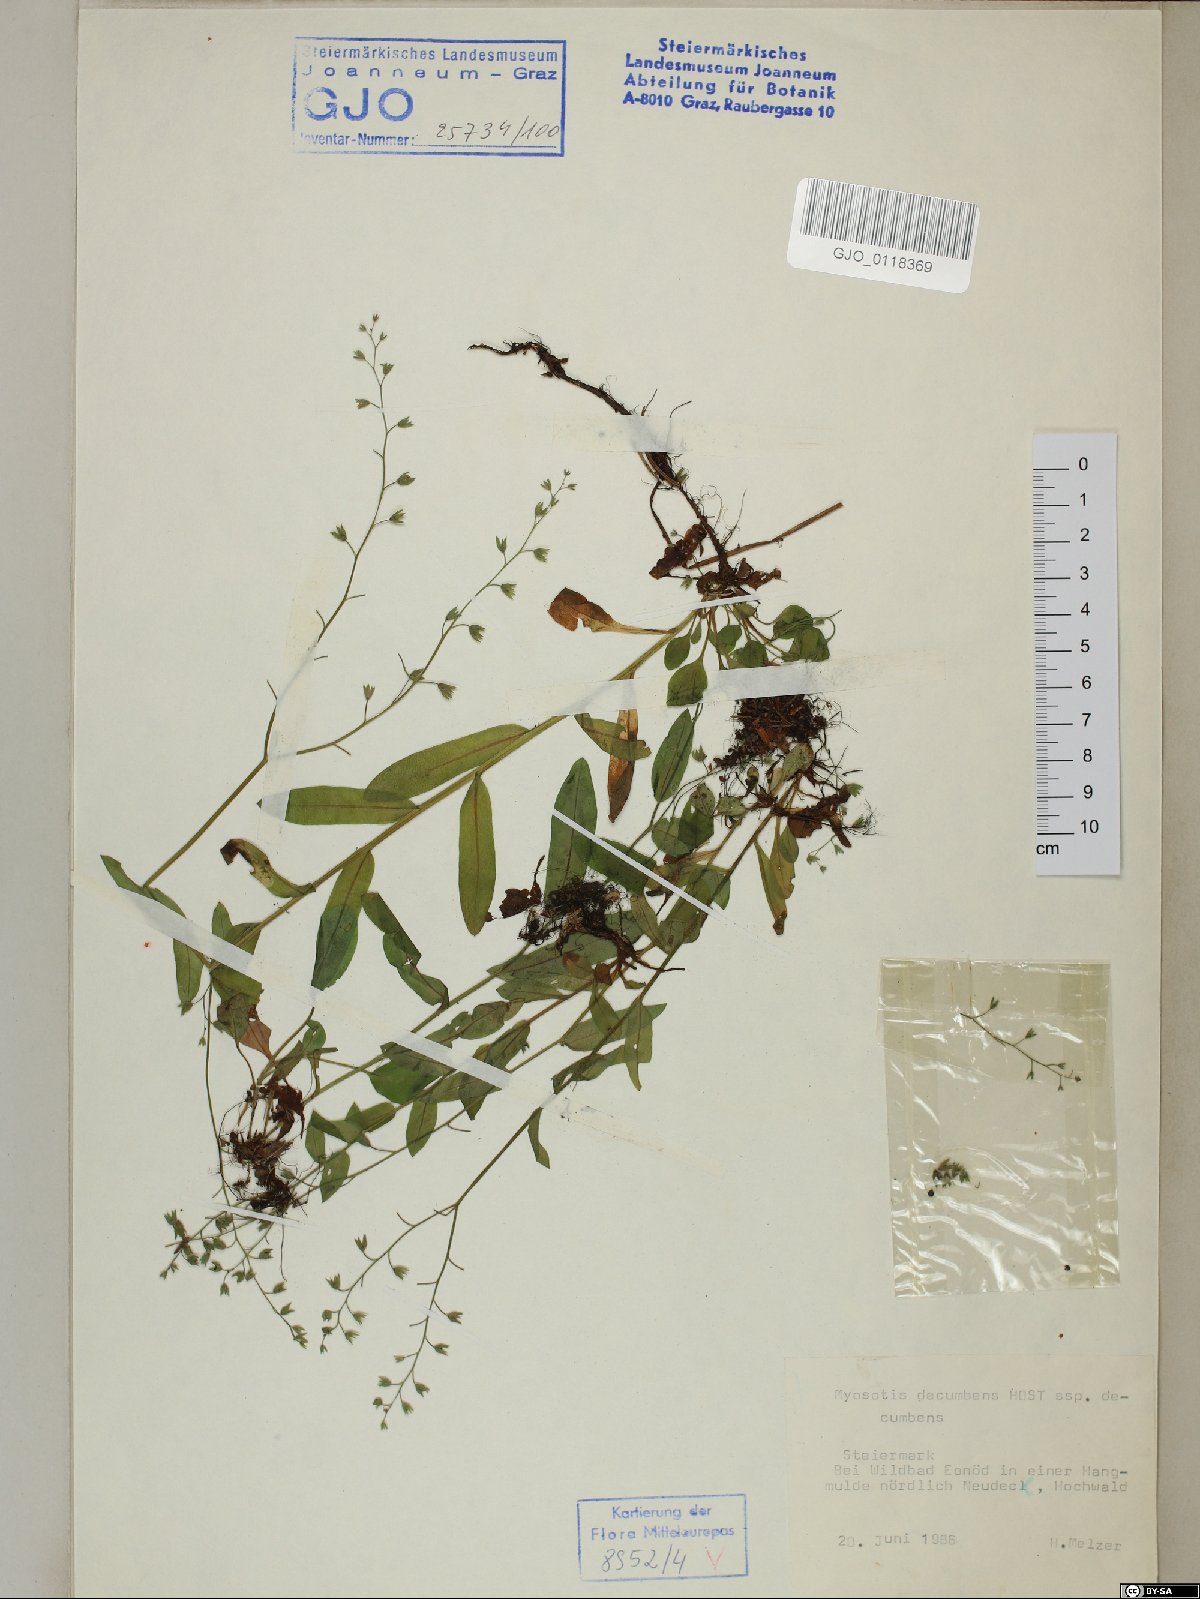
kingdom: Plantae
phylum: Tracheophyta
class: Magnoliopsida
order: Boraginales
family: Boraginaceae
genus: Myosotis
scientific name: Myosotis decumbens
